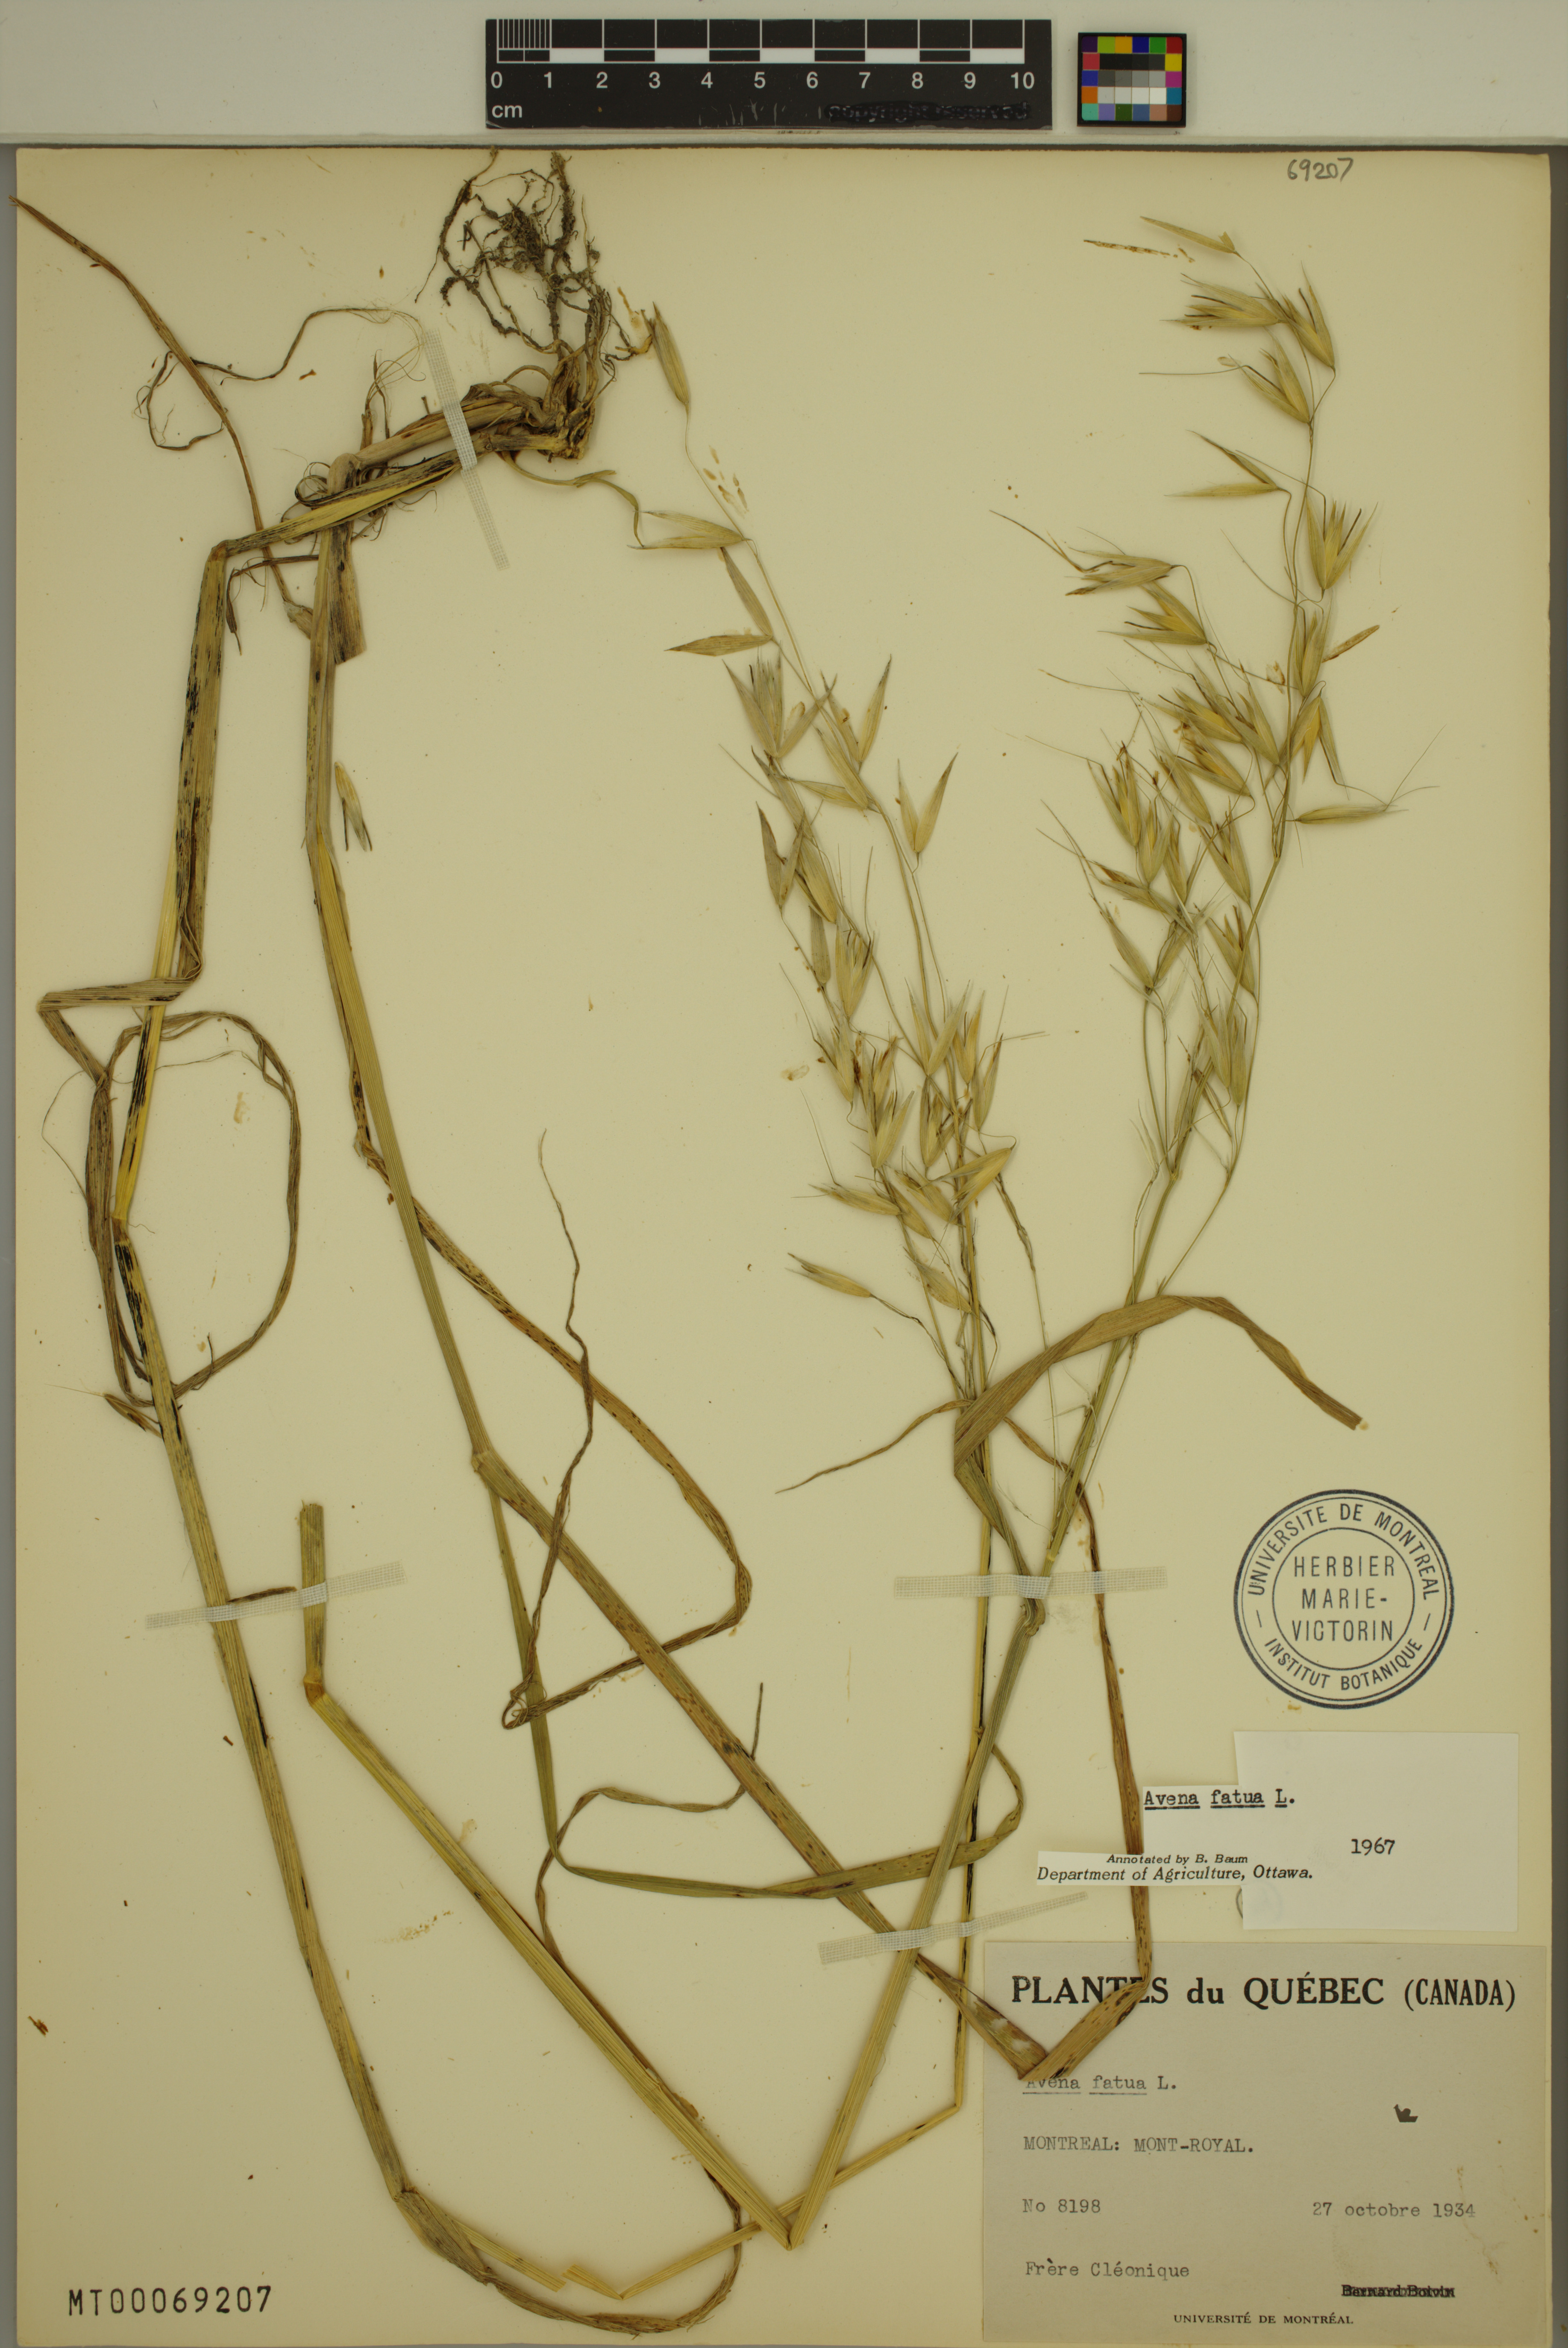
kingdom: Plantae
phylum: Tracheophyta
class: Liliopsida
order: Poales
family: Poaceae
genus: Avena
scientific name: Avena fatua
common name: Wild oat
